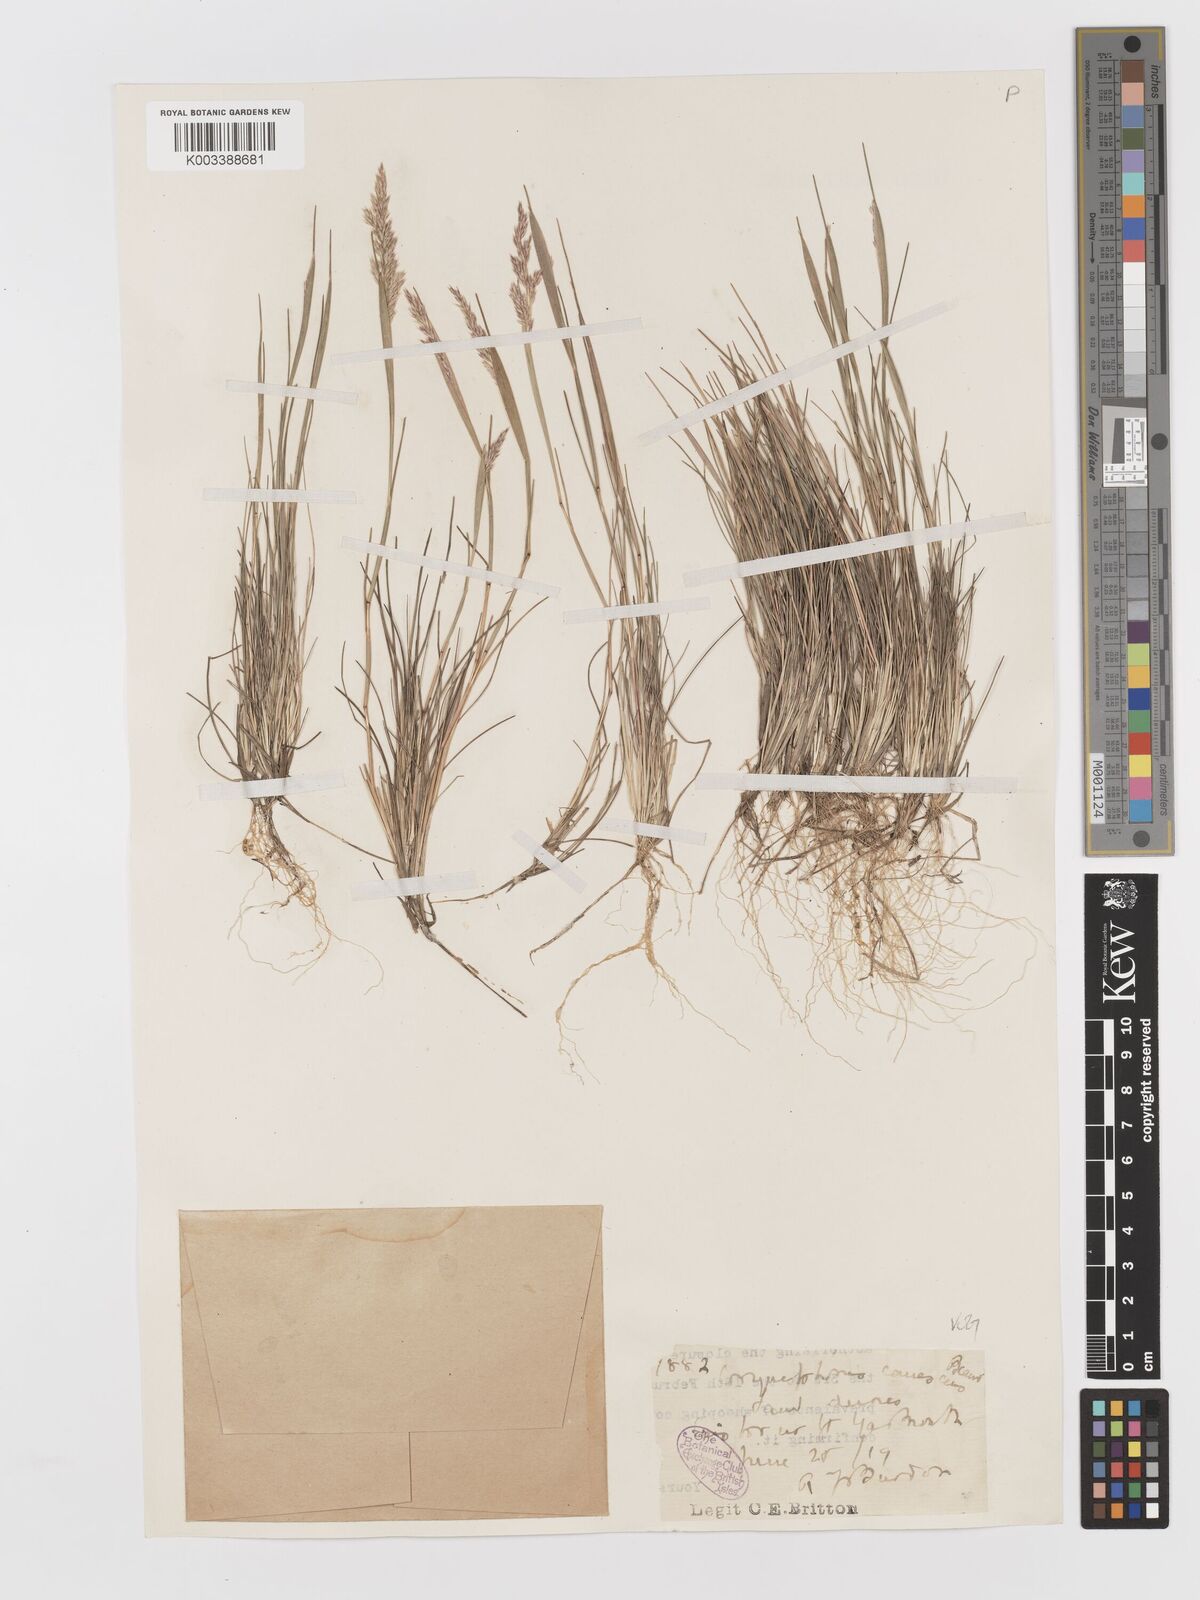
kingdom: Plantae
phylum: Tracheophyta
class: Liliopsida
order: Poales
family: Poaceae
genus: Corynephorus
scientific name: Corynephorus canescens
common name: Grey hair-grass
